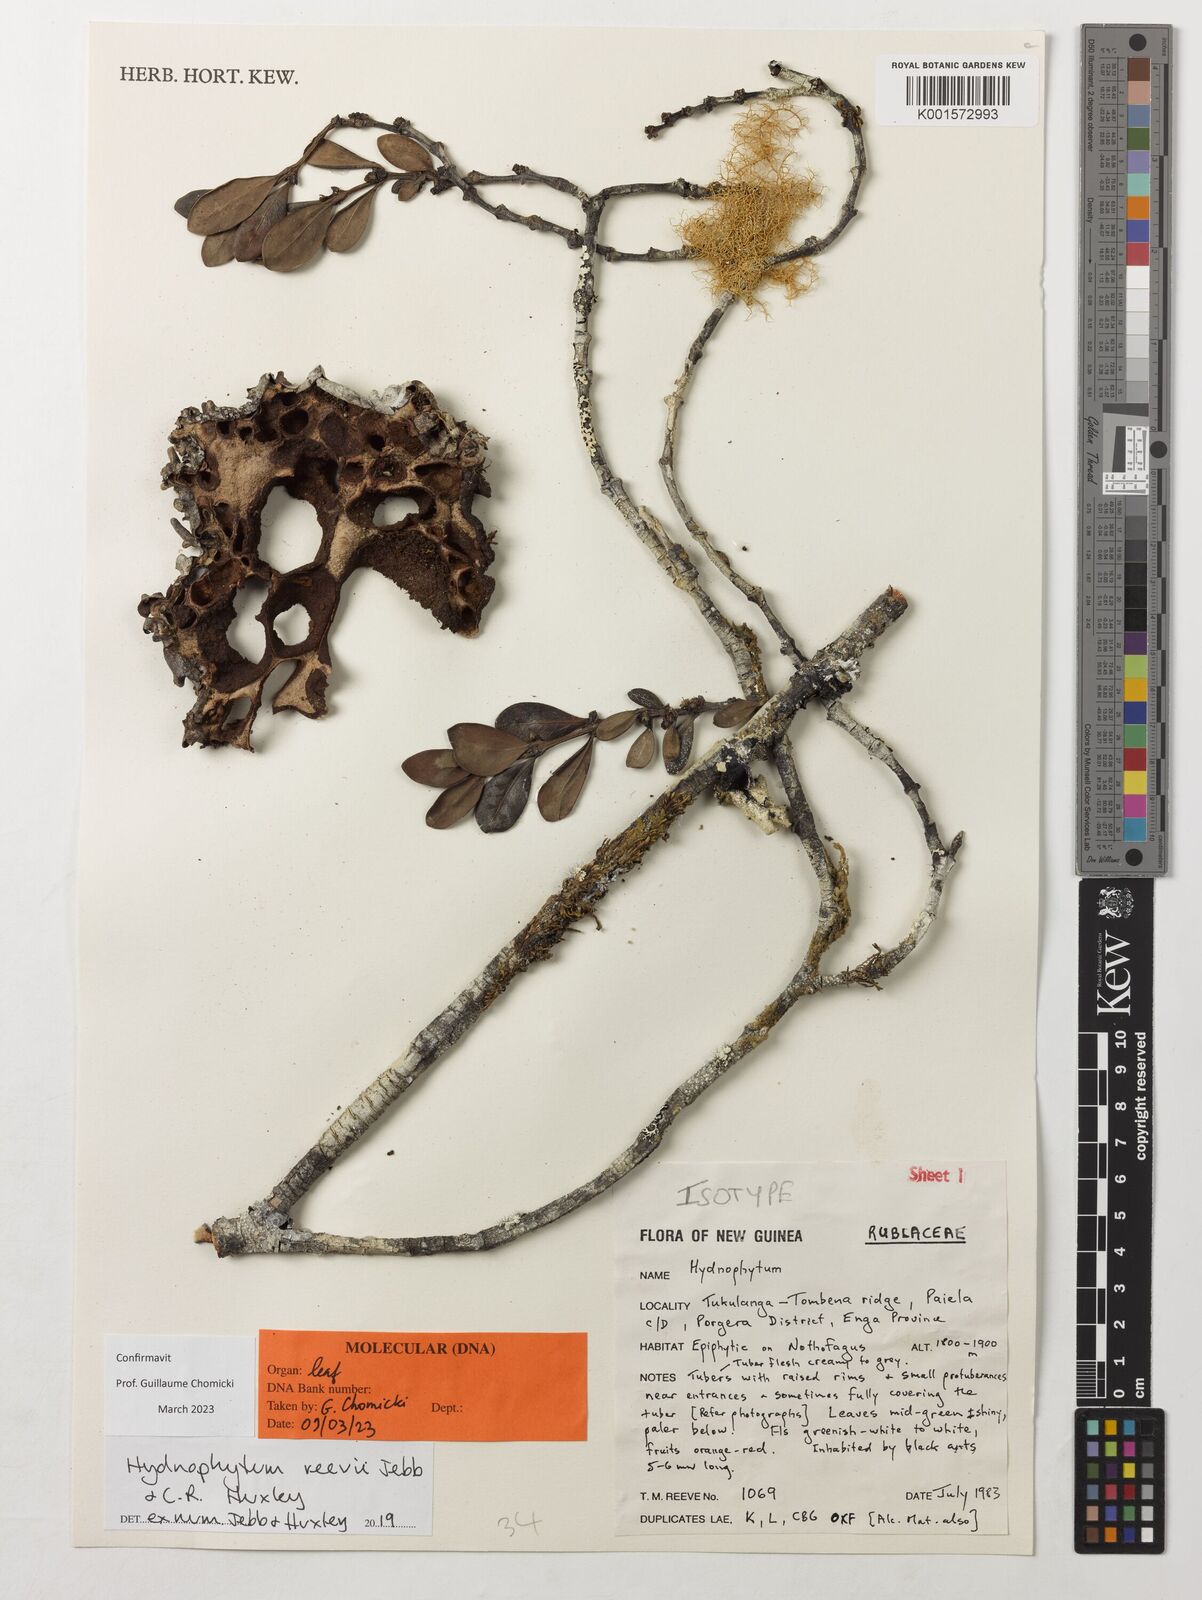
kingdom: Plantae
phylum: Tracheophyta
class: Magnoliopsida
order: Gentianales
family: Rubiaceae
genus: Hydnophytum
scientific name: Hydnophytum reevii
